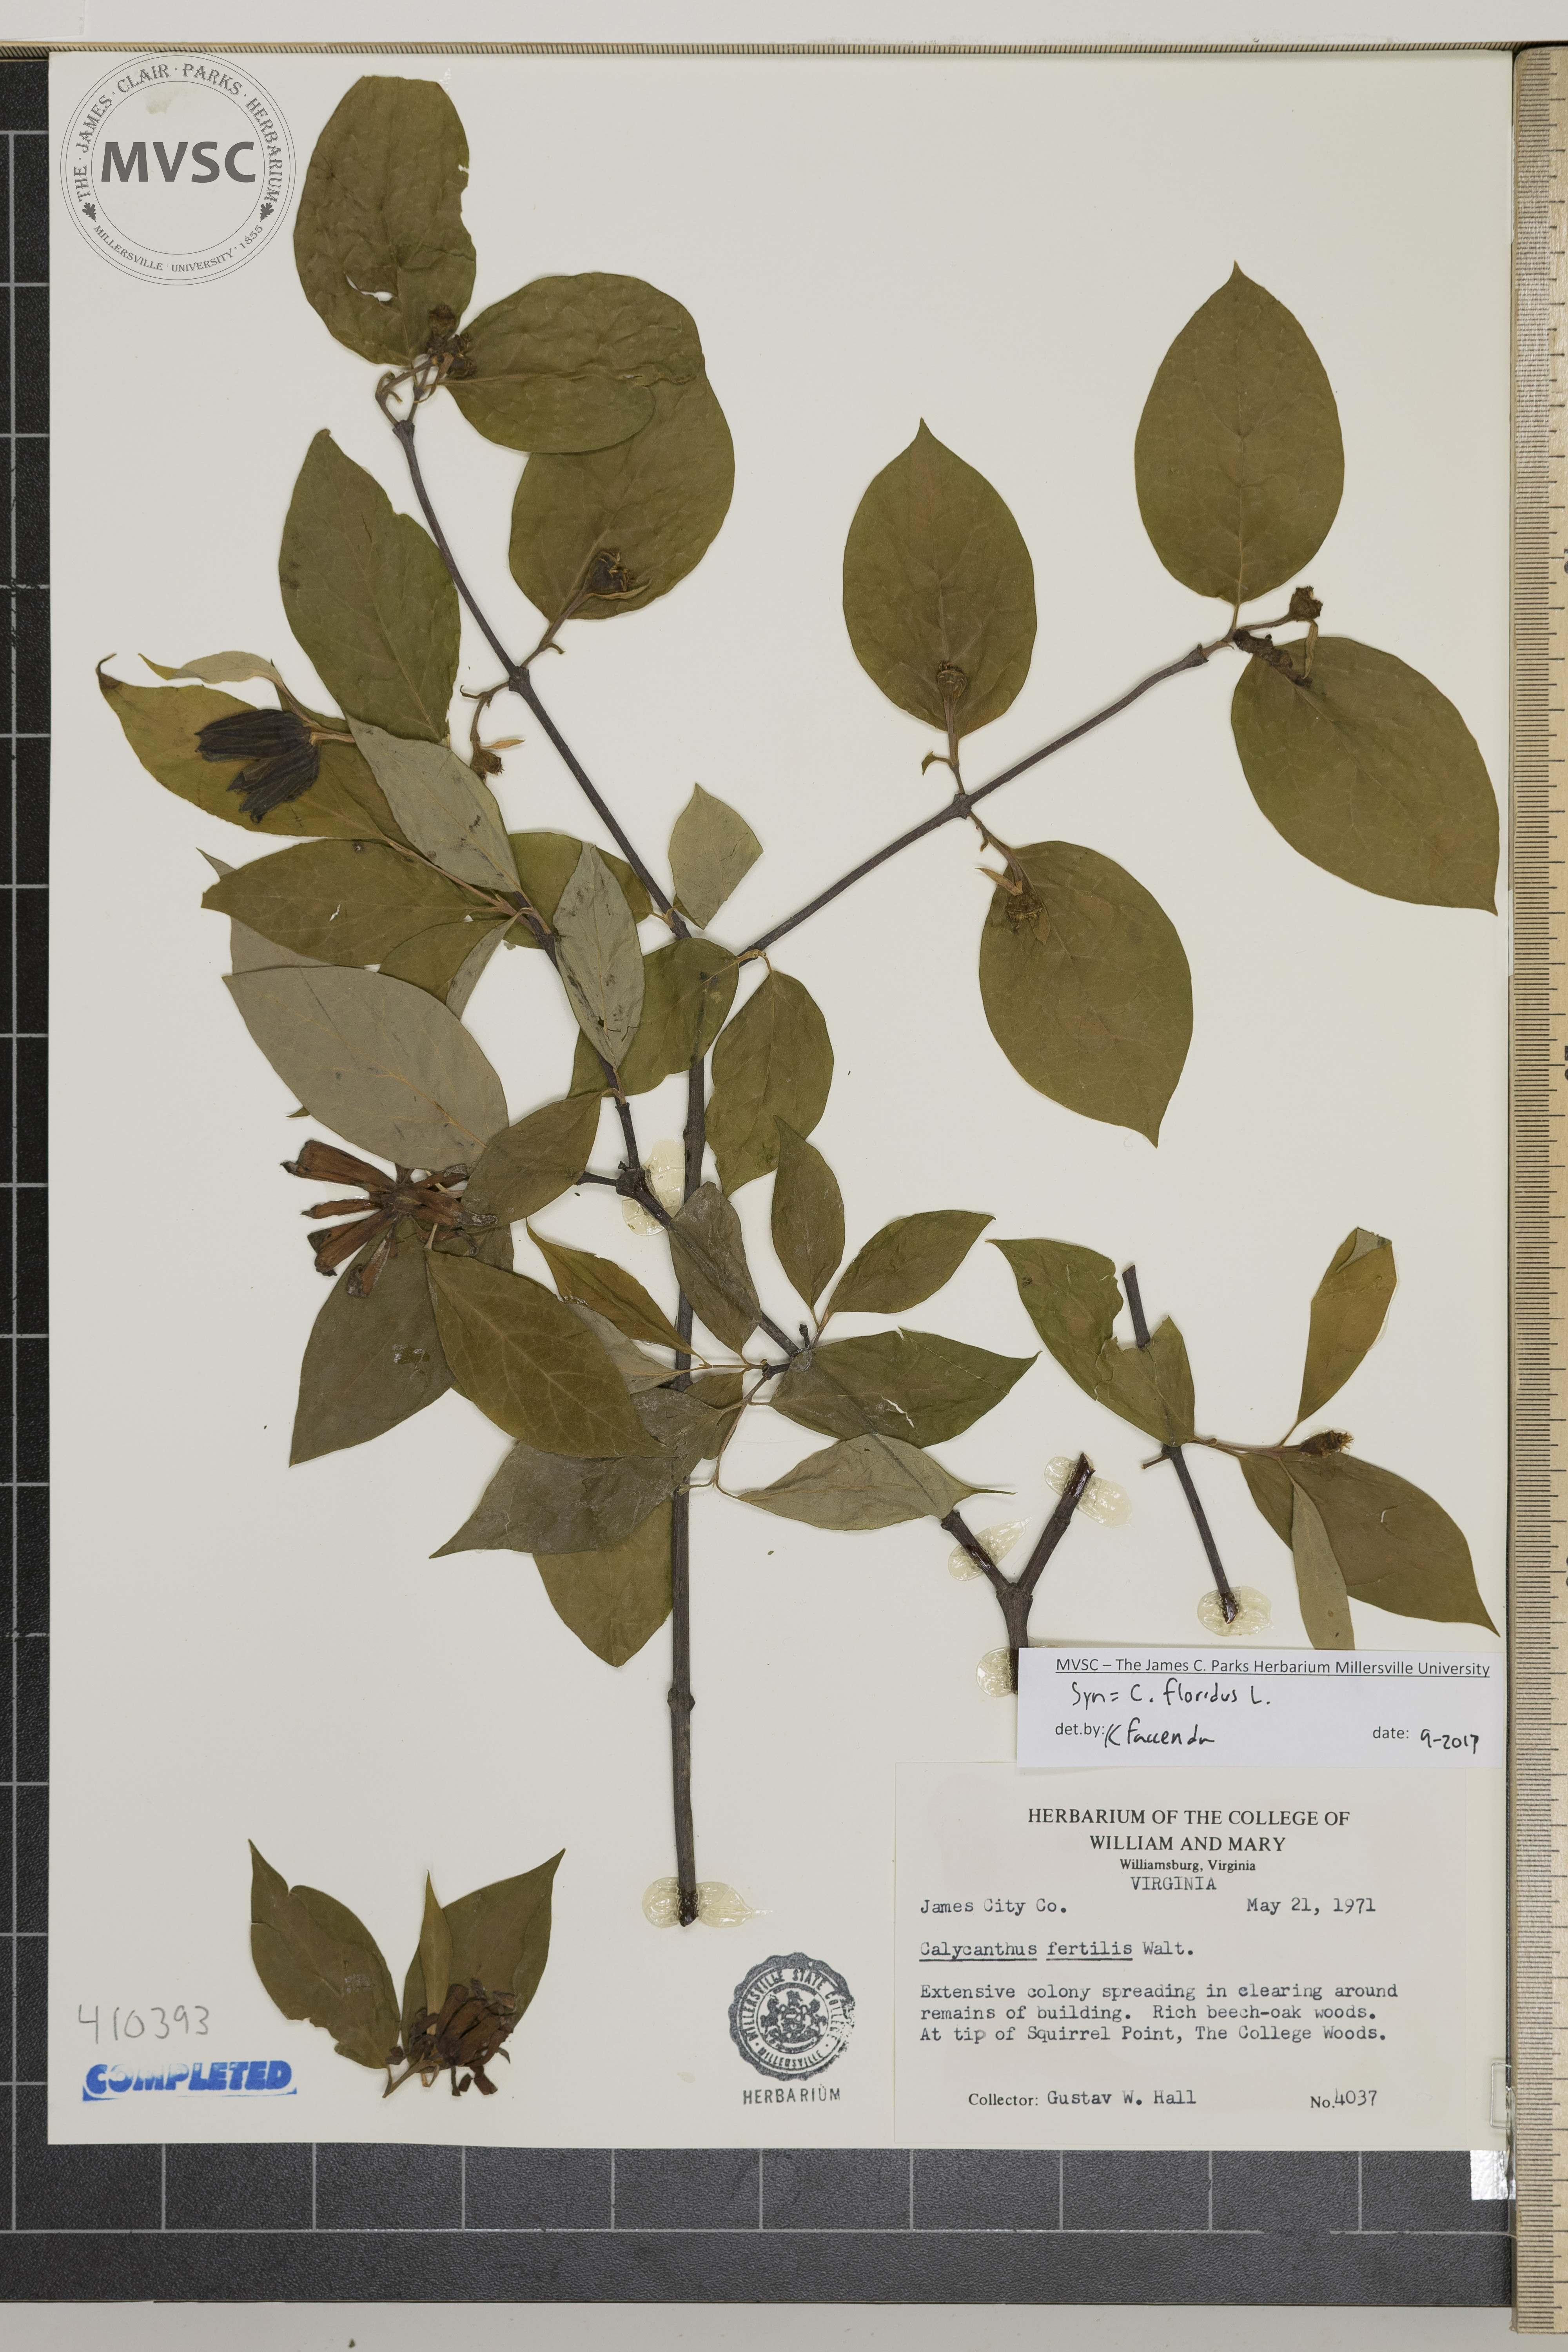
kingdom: Plantae
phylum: Tracheophyta
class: Magnoliopsida
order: Laurales
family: Calycanthaceae
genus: Calycanthus
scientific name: Calycanthus floridus
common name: Carolina-allspice
